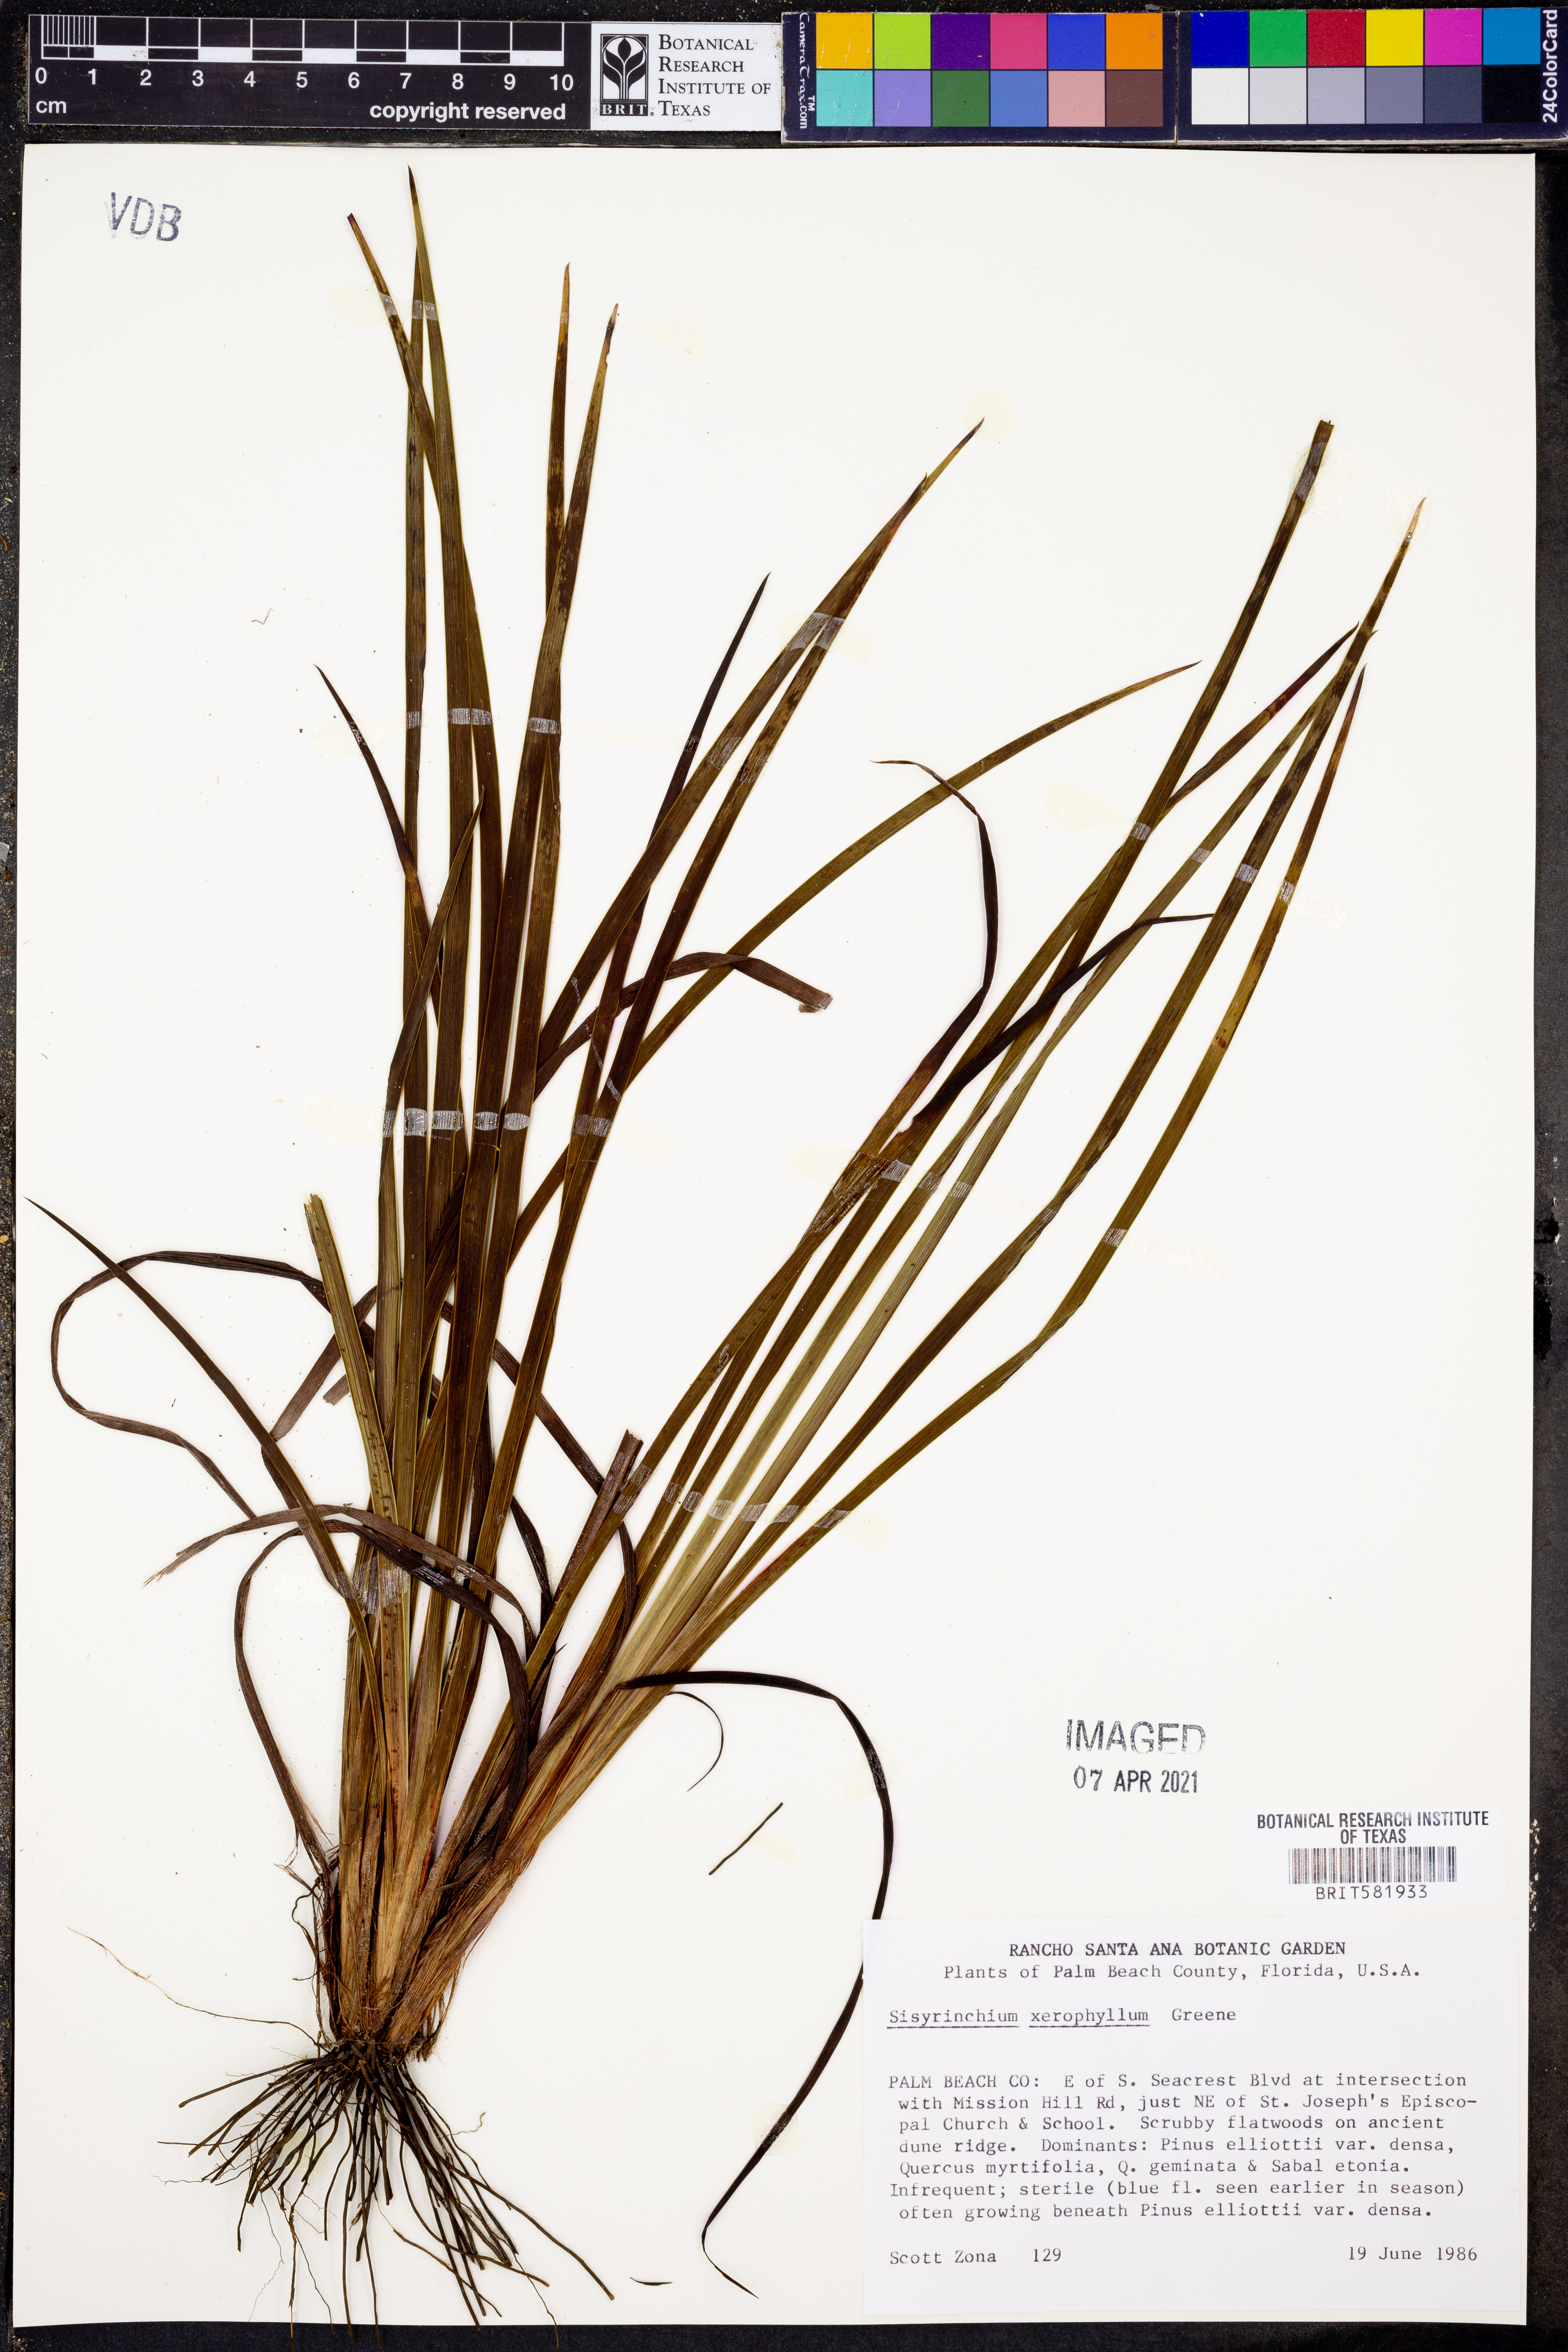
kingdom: Plantae
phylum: Tracheophyta
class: Liliopsida
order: Asparagales
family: Iridaceae
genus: Sisyrinchium
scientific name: Sisyrinchium xerophyllum
